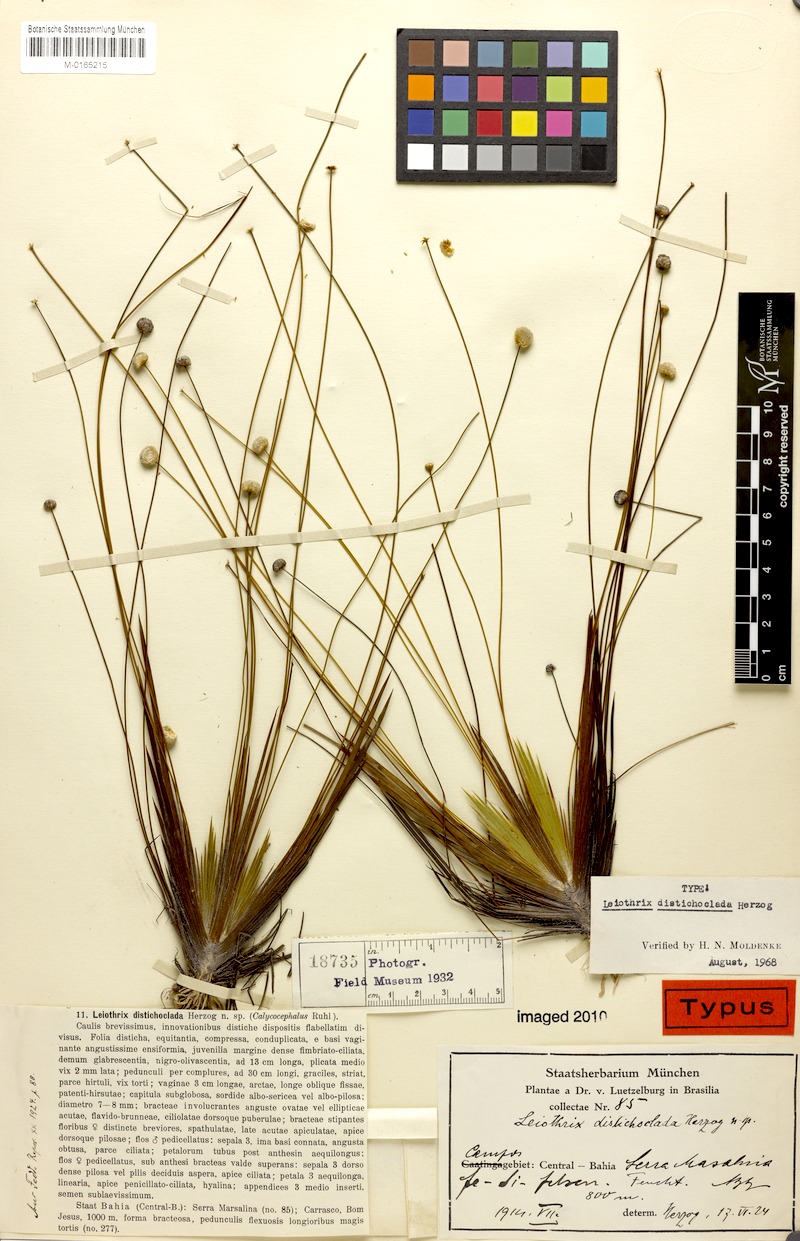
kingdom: Plantae
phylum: Tracheophyta
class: Liliopsida
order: Poales
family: Eriocaulaceae
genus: Leiothrix
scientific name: Leiothrix distichoclada
